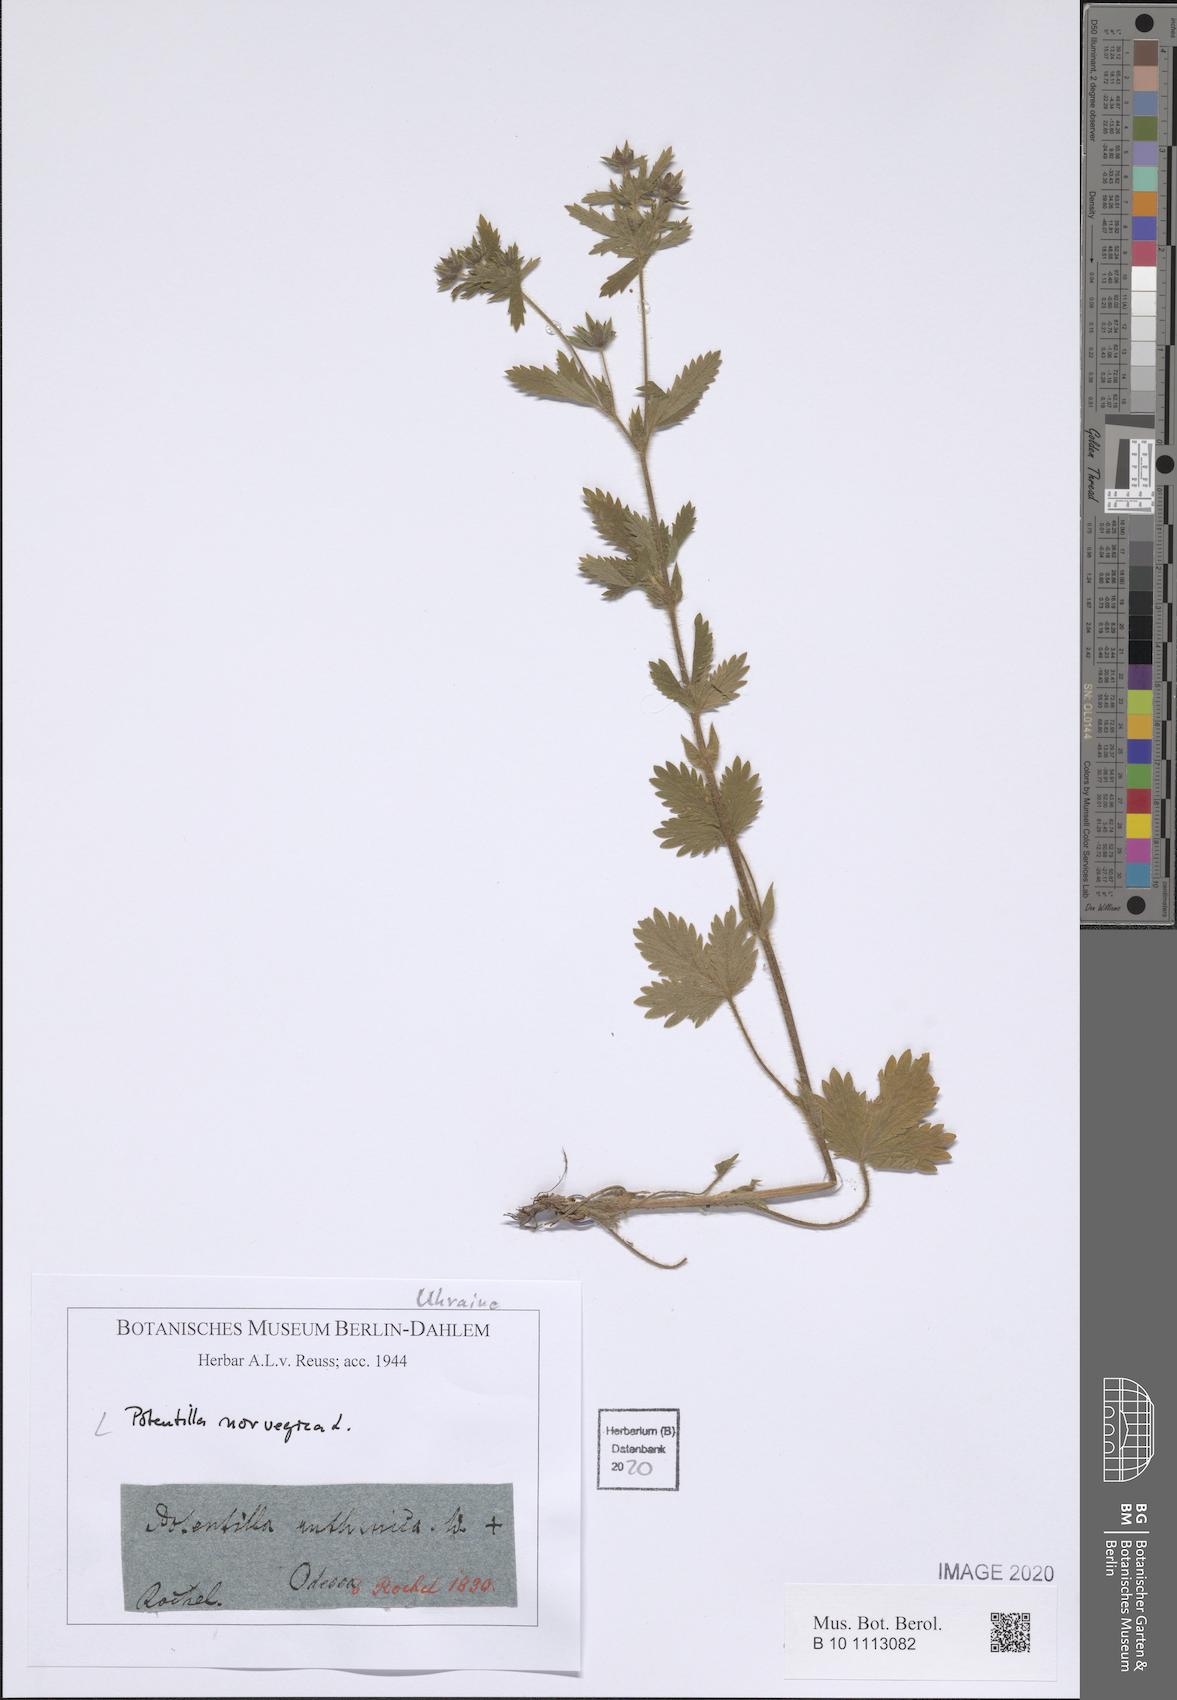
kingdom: Plantae
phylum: Tracheophyta
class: Magnoliopsida
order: Rosales
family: Rosaceae
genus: Potentilla
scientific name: Potentilla norvegica
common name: Ternate-leaved cinquefoil
